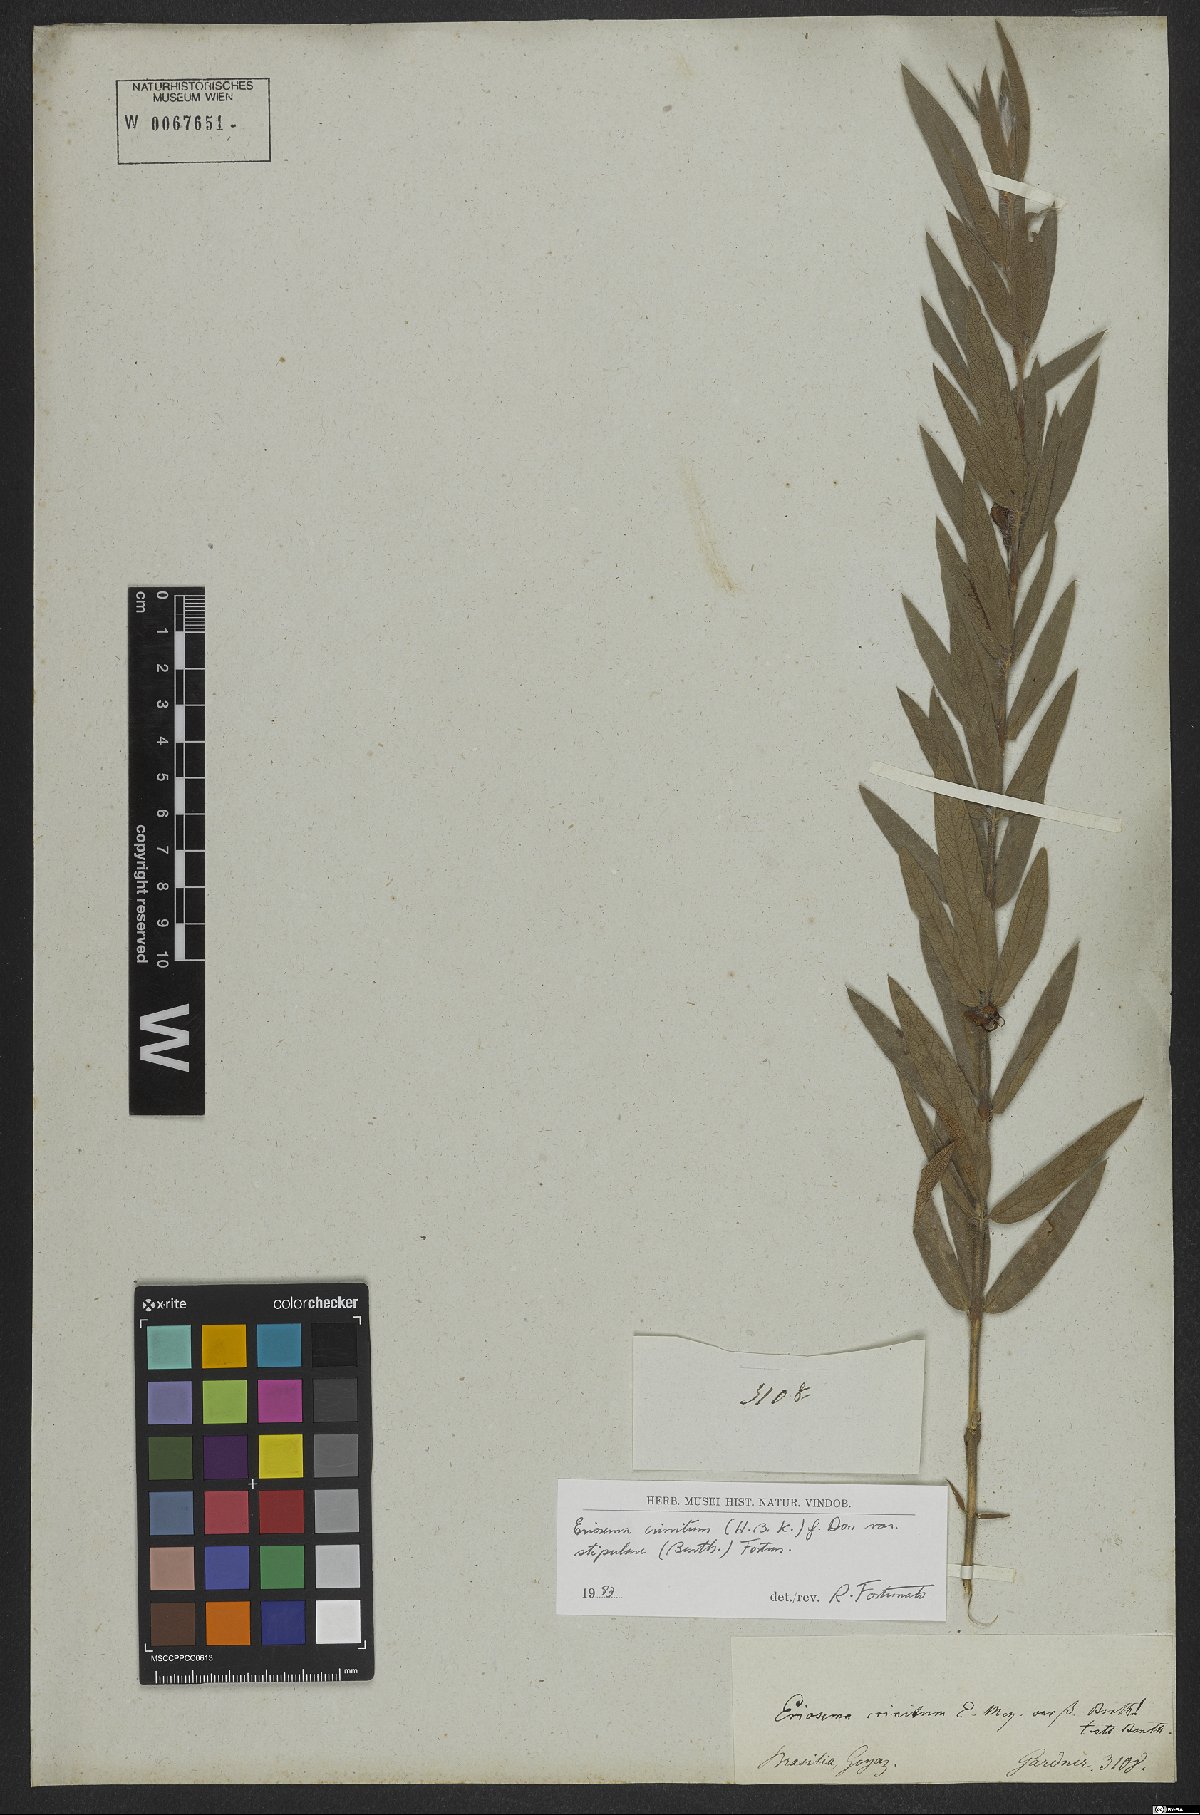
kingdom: Plantae
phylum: Tracheophyta
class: Magnoliopsida
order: Fabales
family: Fabaceae
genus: Eriosema
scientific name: Eriosema crinitum
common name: Sand pea
